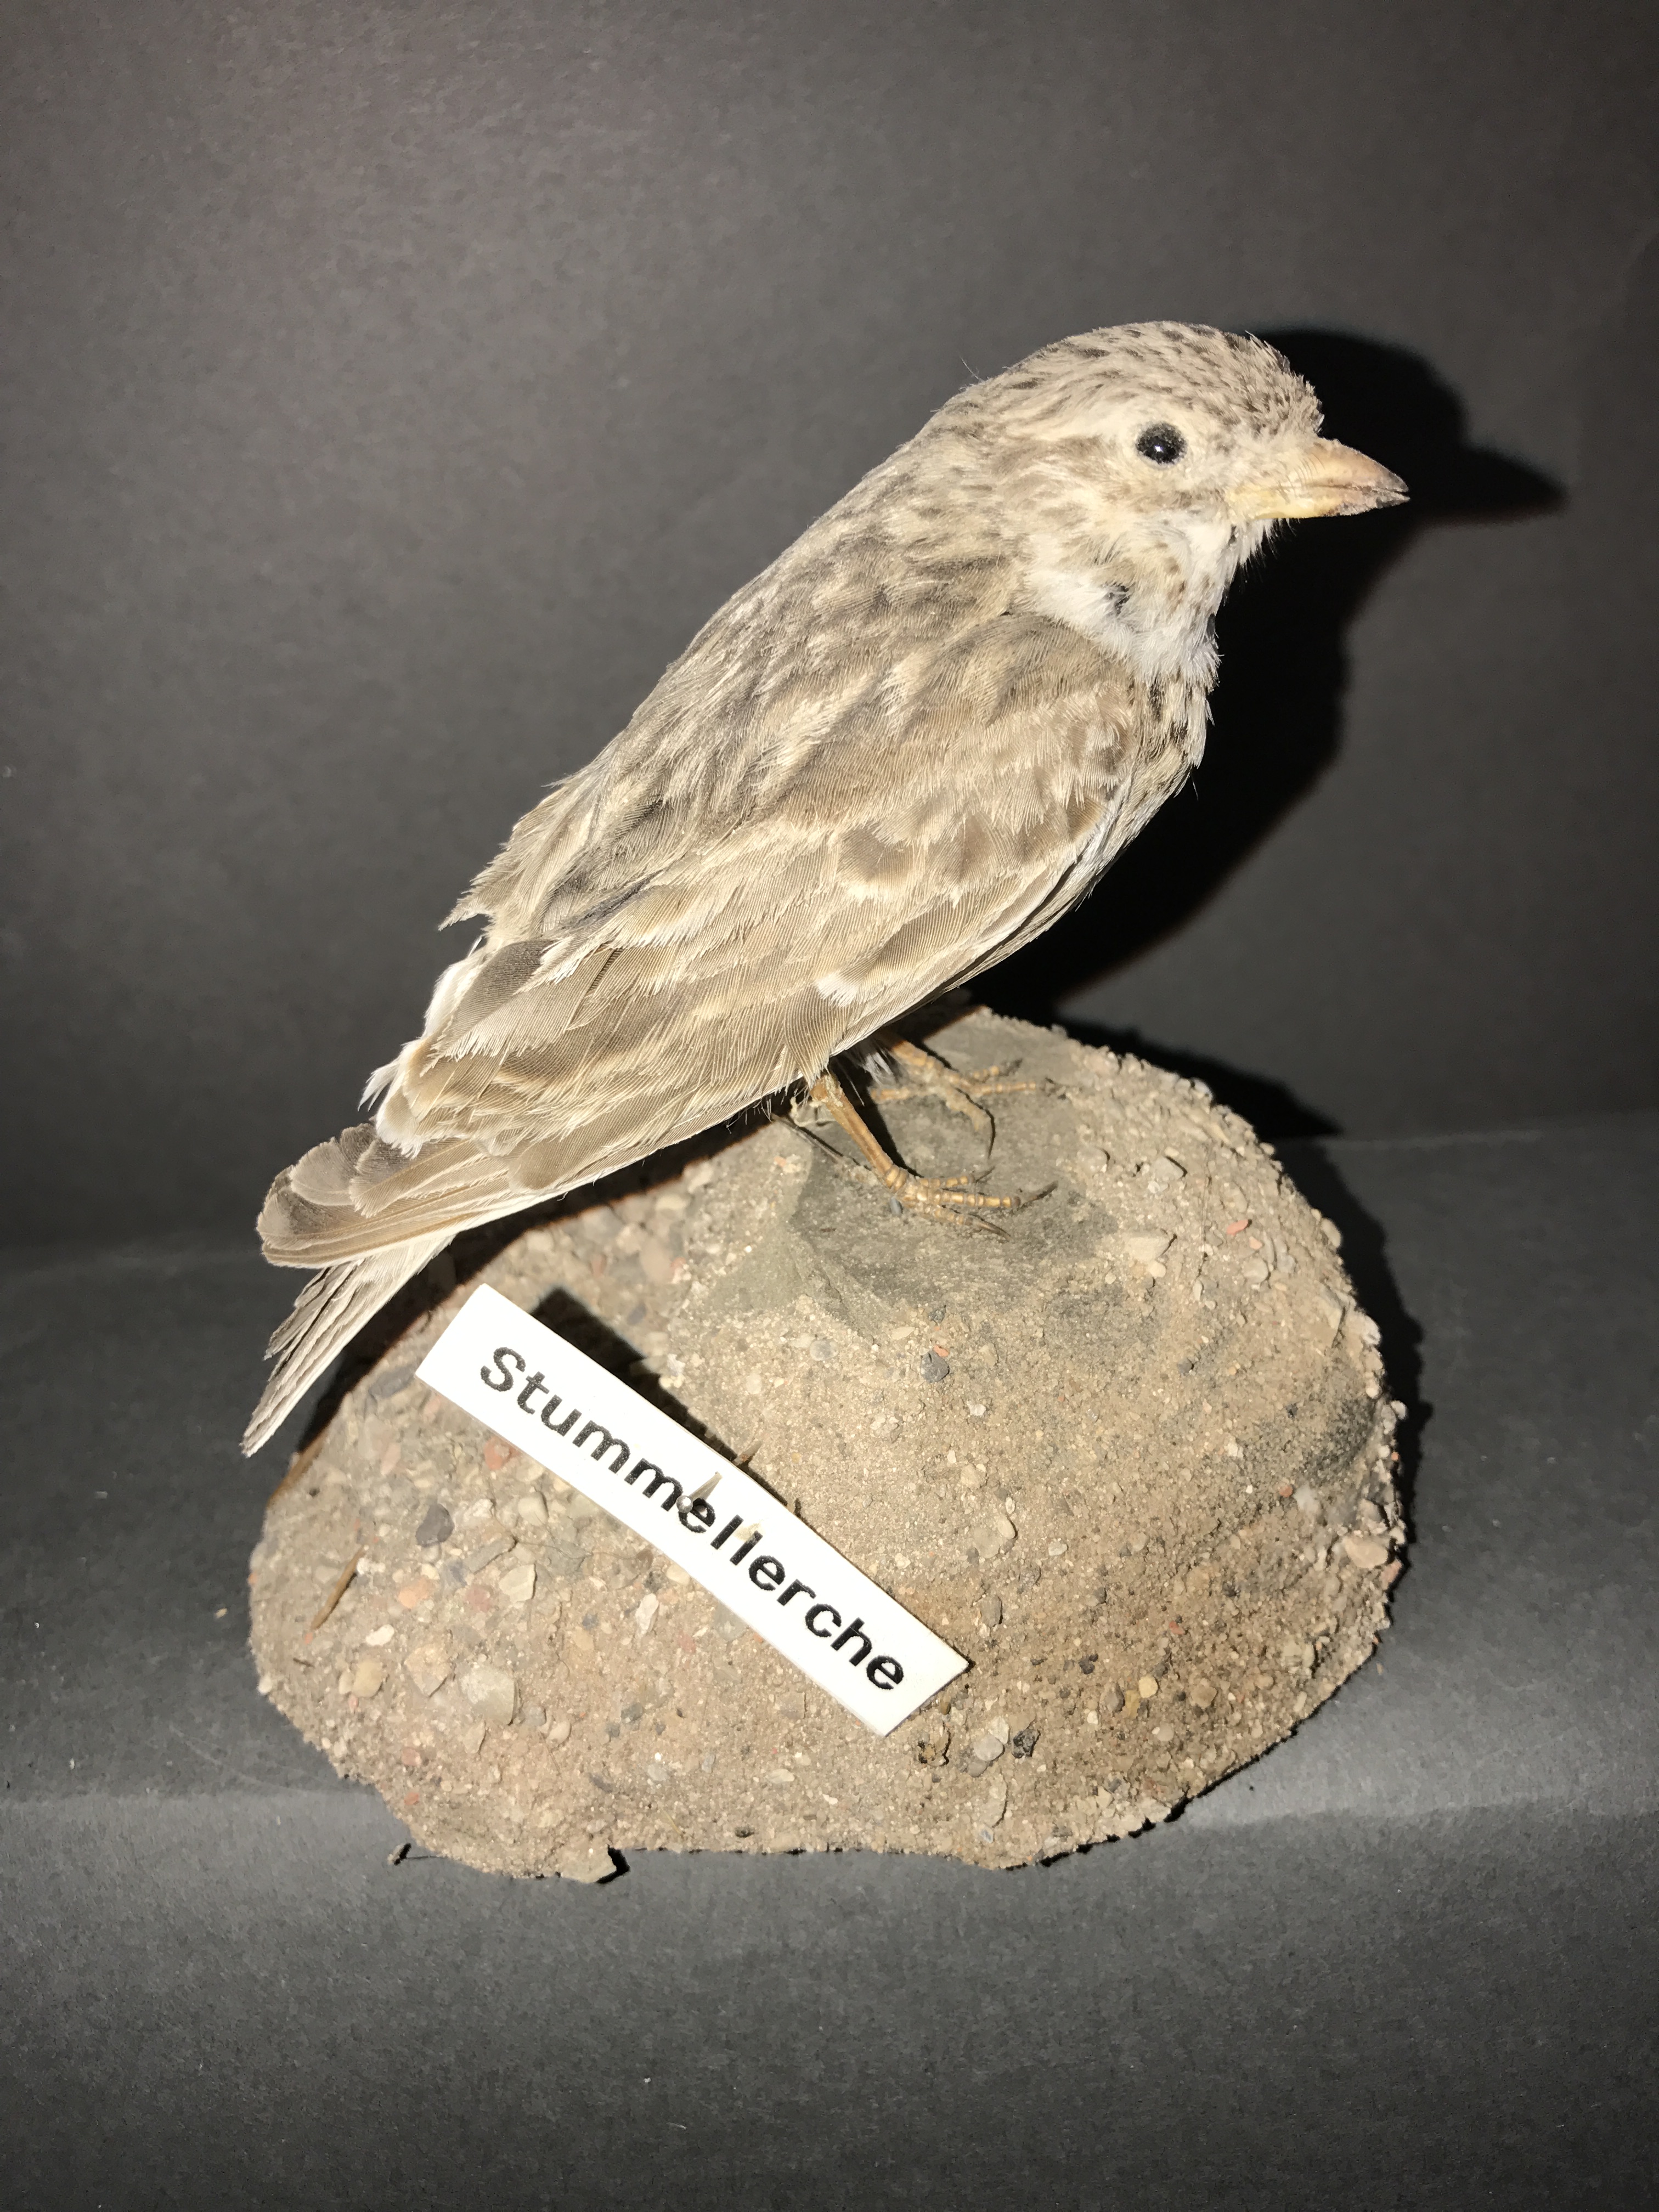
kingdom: Animalia
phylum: Chordata
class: Aves
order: Passeriformes
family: Alaudidae
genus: Calandrella
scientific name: Calandrella rufescens
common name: Lesser short-toed lark
